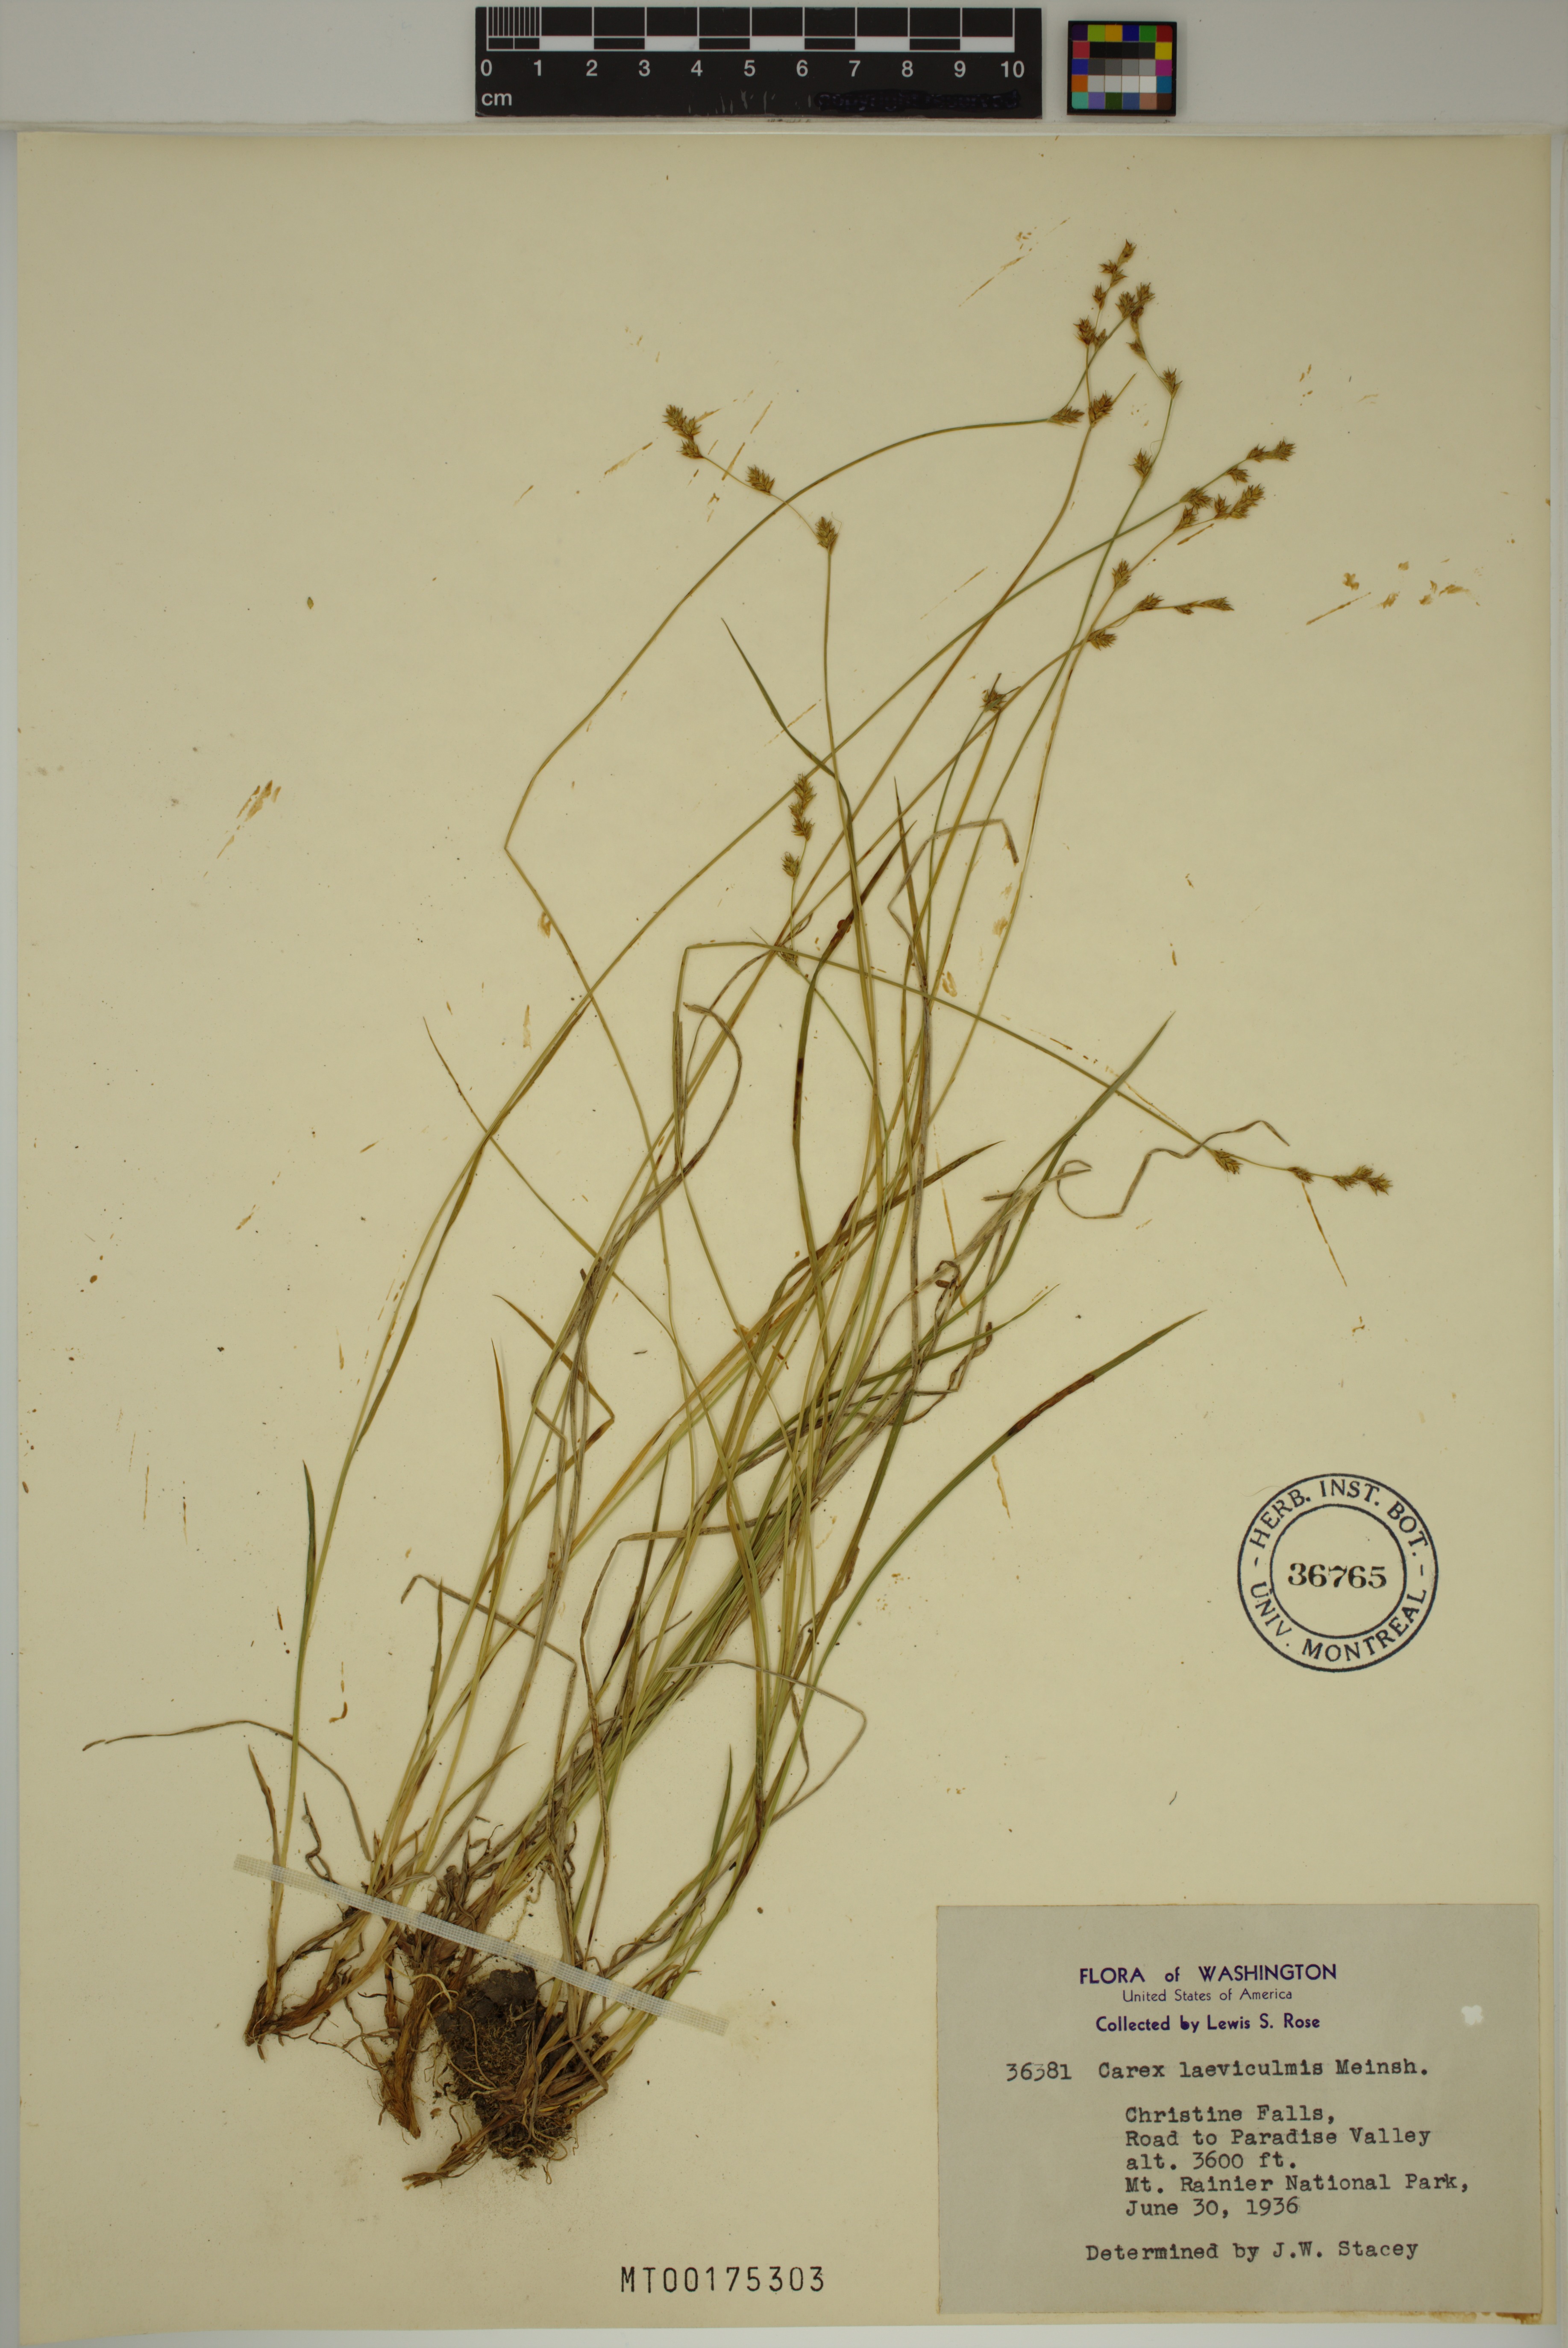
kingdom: Plantae
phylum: Tracheophyta
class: Liliopsida
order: Poales
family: Cyperaceae
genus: Carex
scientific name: Carex laeviculmis
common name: Smooth sedge
